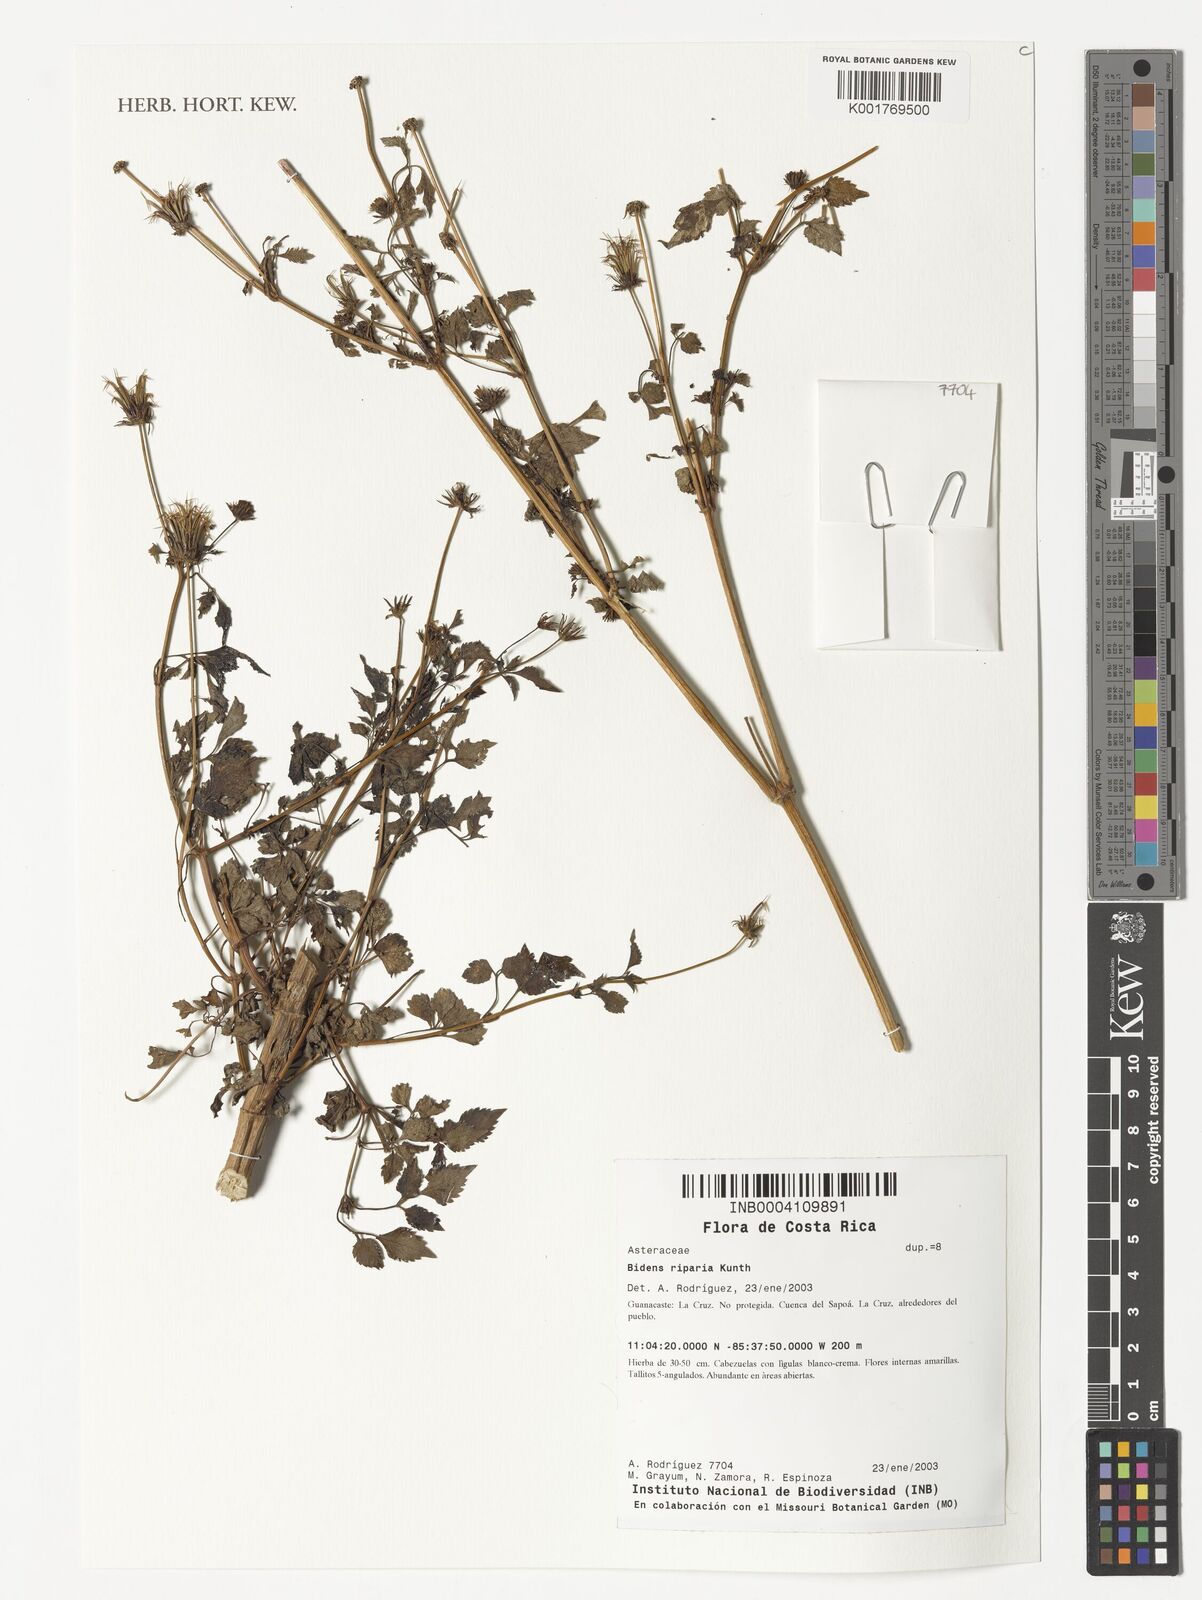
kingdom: Plantae
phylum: Tracheophyta
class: Magnoliopsida
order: Asterales
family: Asteraceae
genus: Bidens
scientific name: Bidens riparia
